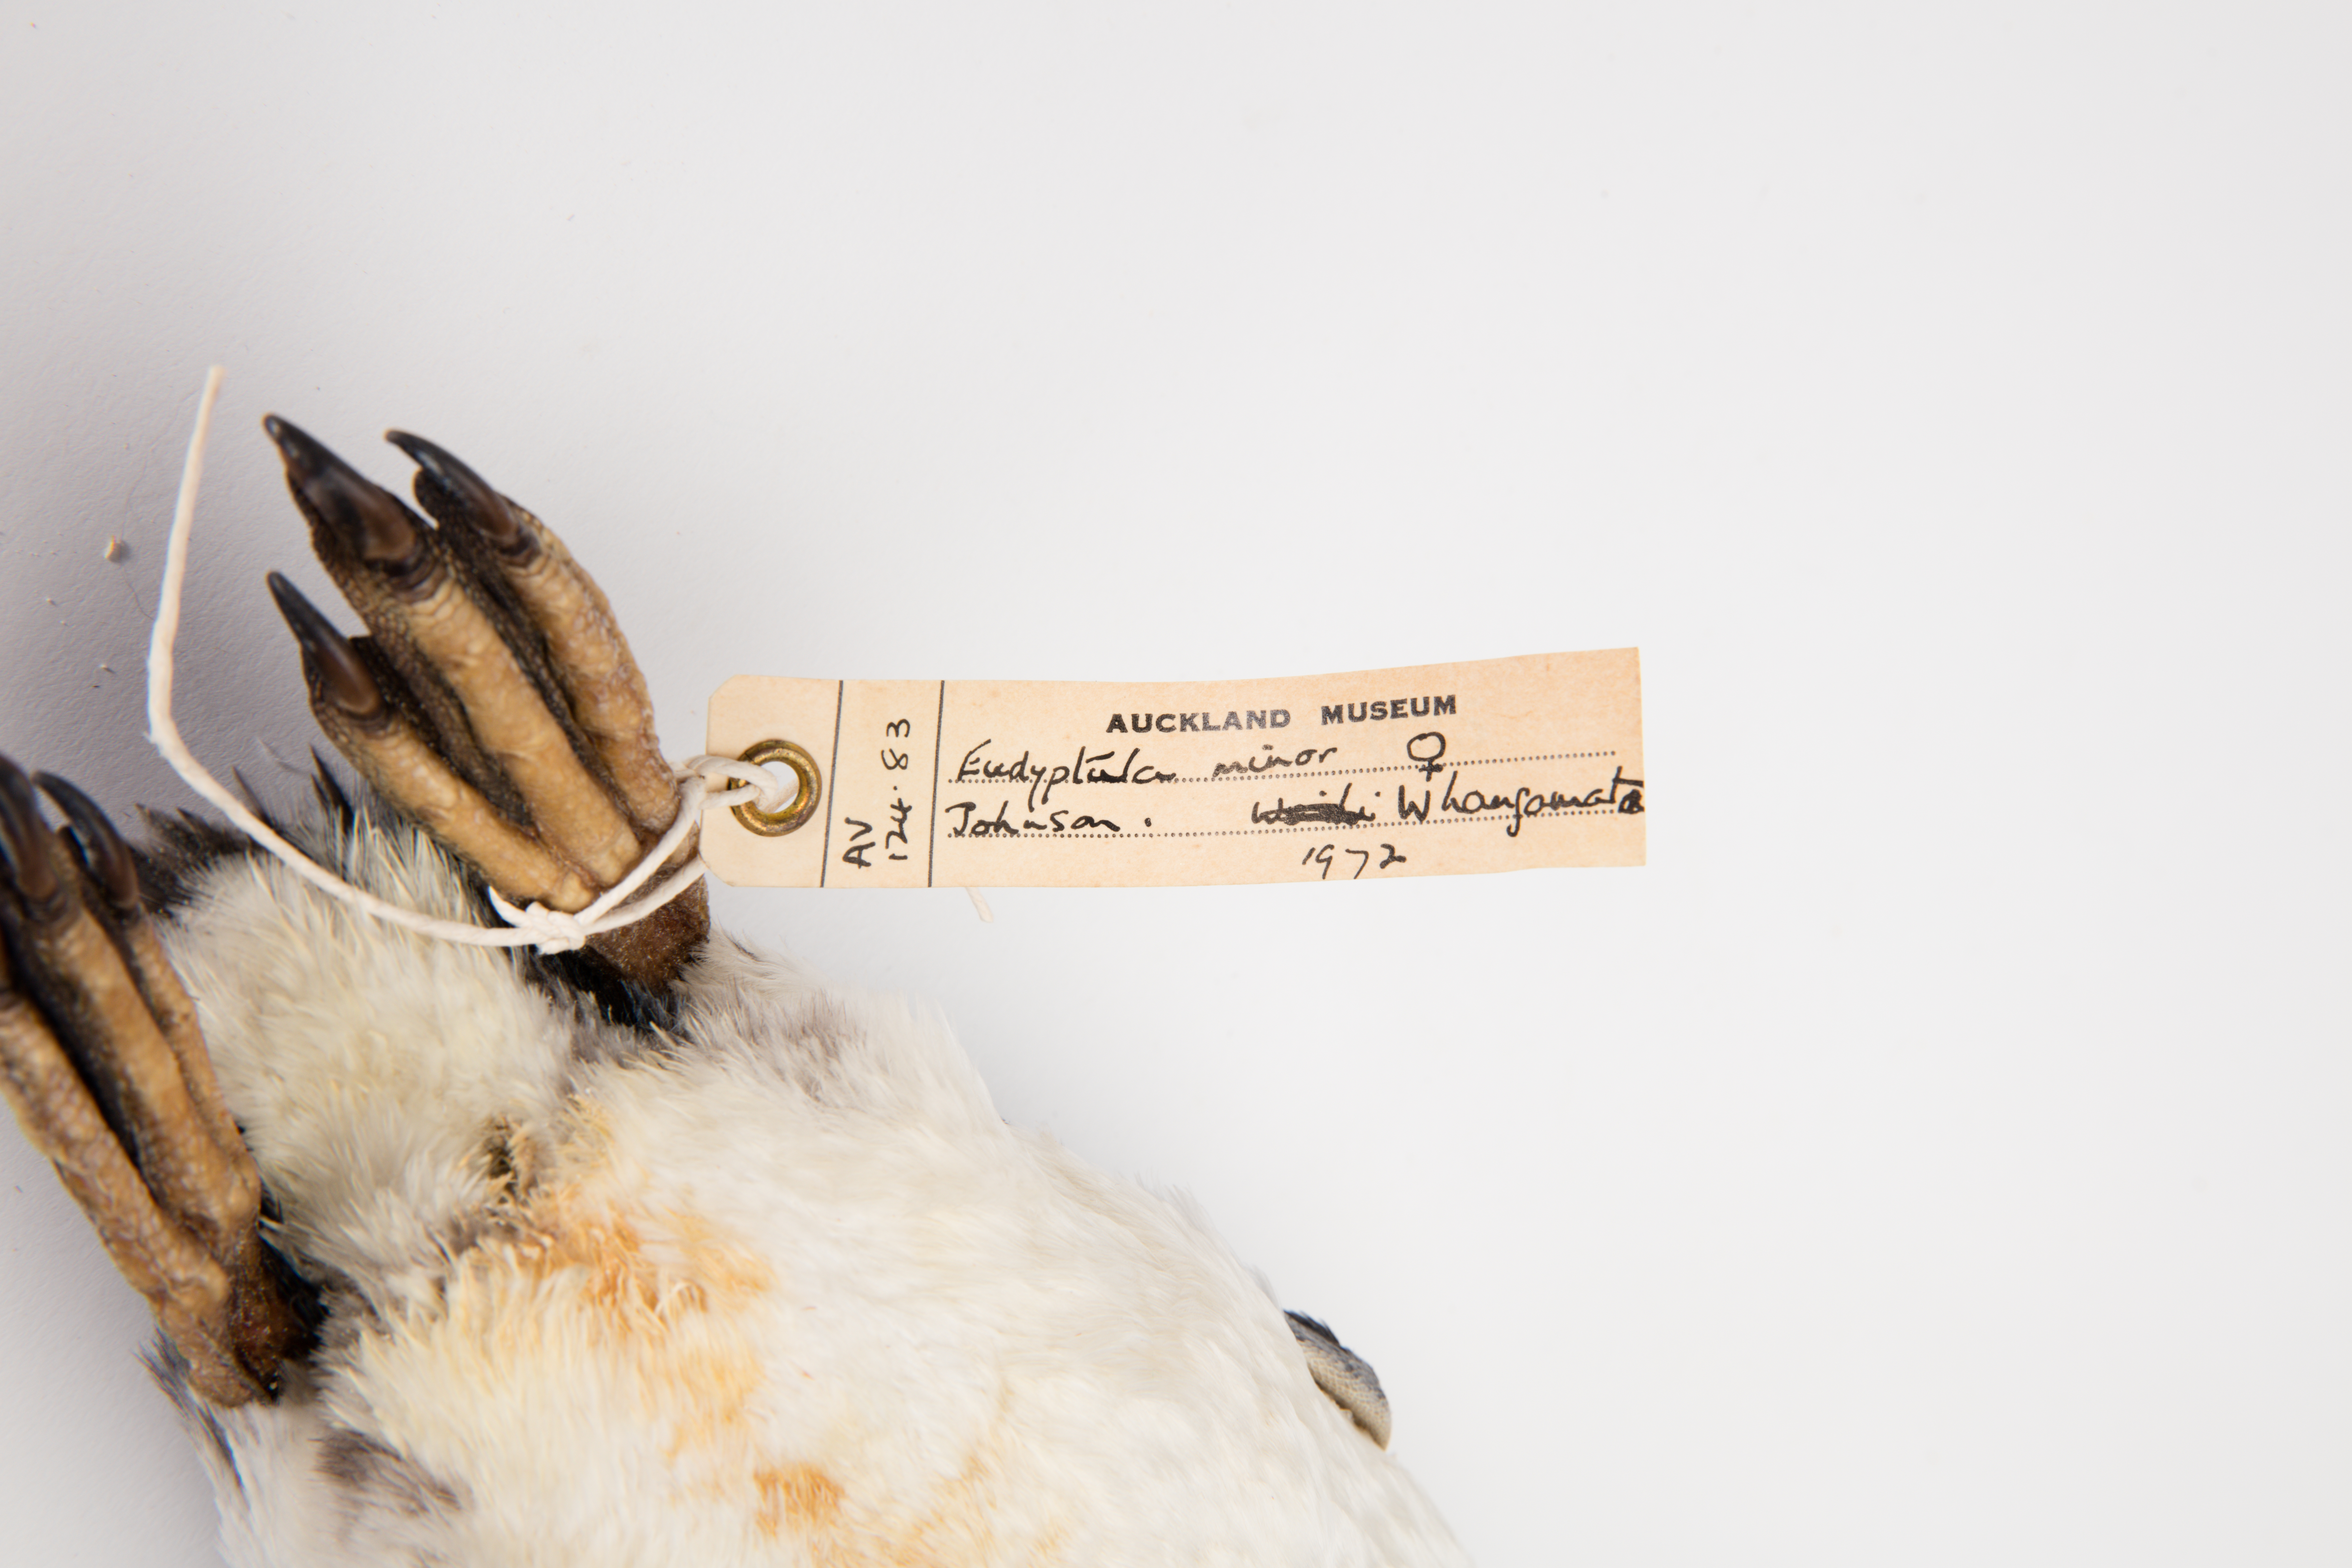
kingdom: Animalia
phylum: Chordata
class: Aves
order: Sphenisciformes
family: Spheniscidae
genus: Eudyptula
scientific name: Eudyptula minor
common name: Little penguin
